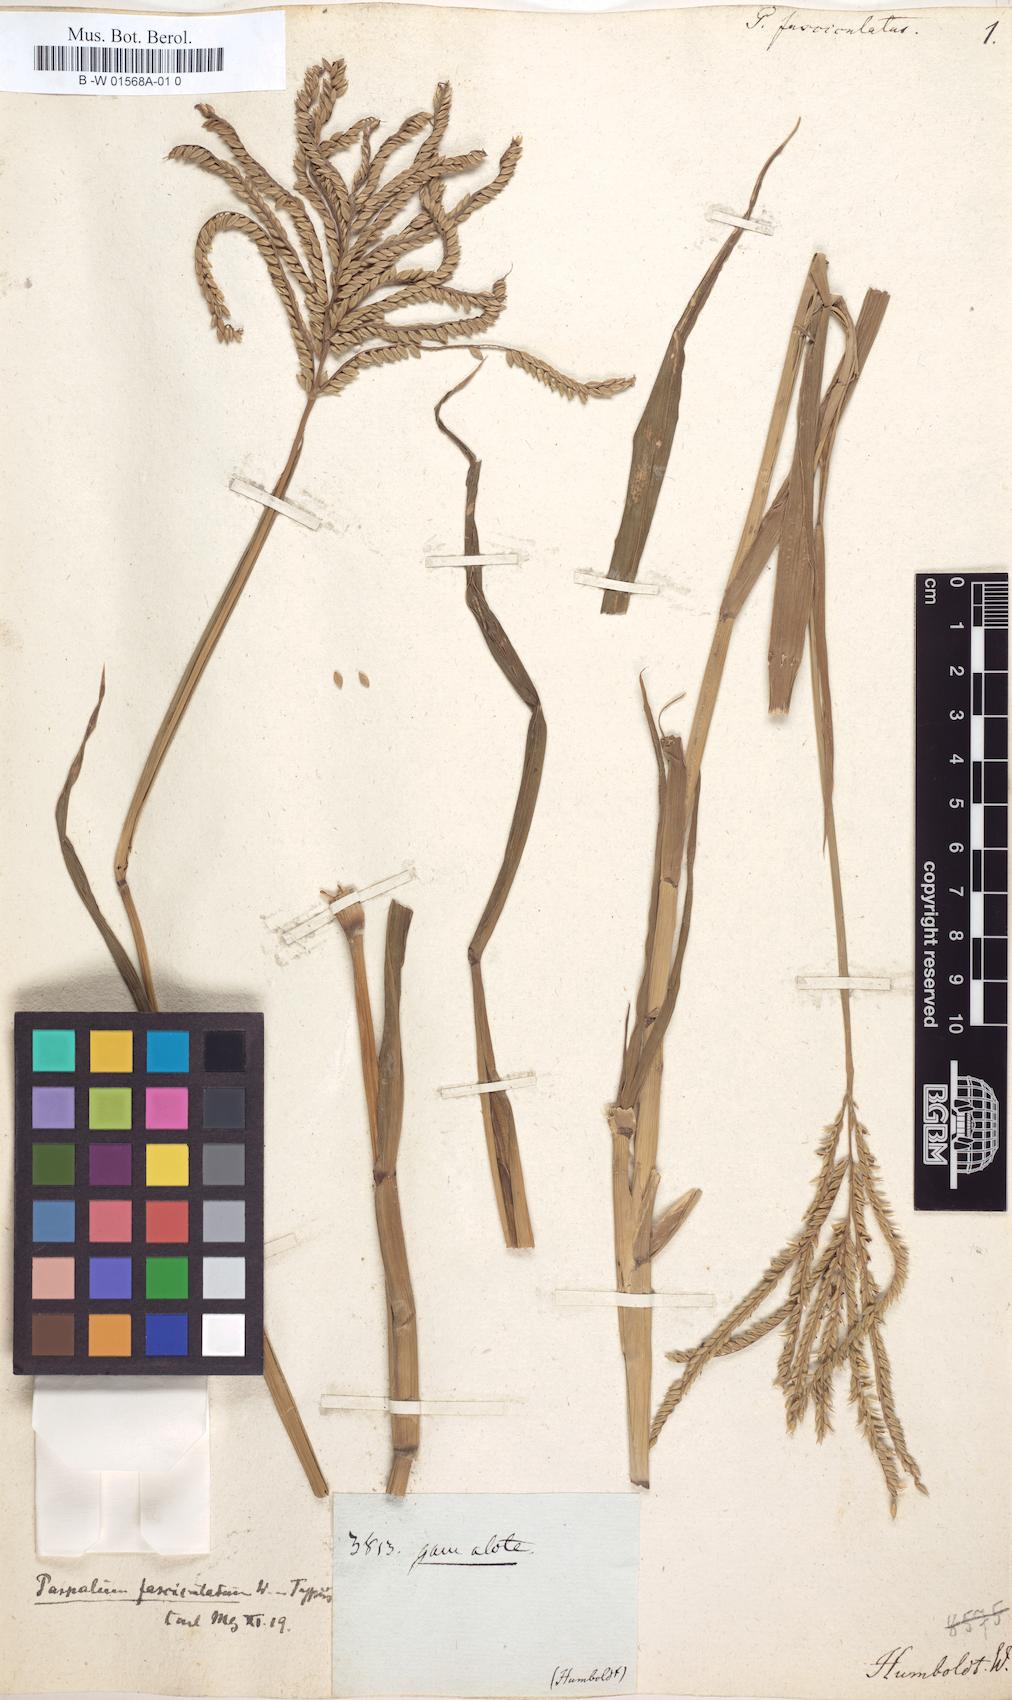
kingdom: Plantae
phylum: Tracheophyta
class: Liliopsida
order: Poales
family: Poaceae
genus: Paspalum
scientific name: Paspalum fasciculatum
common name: Bamboo grass
